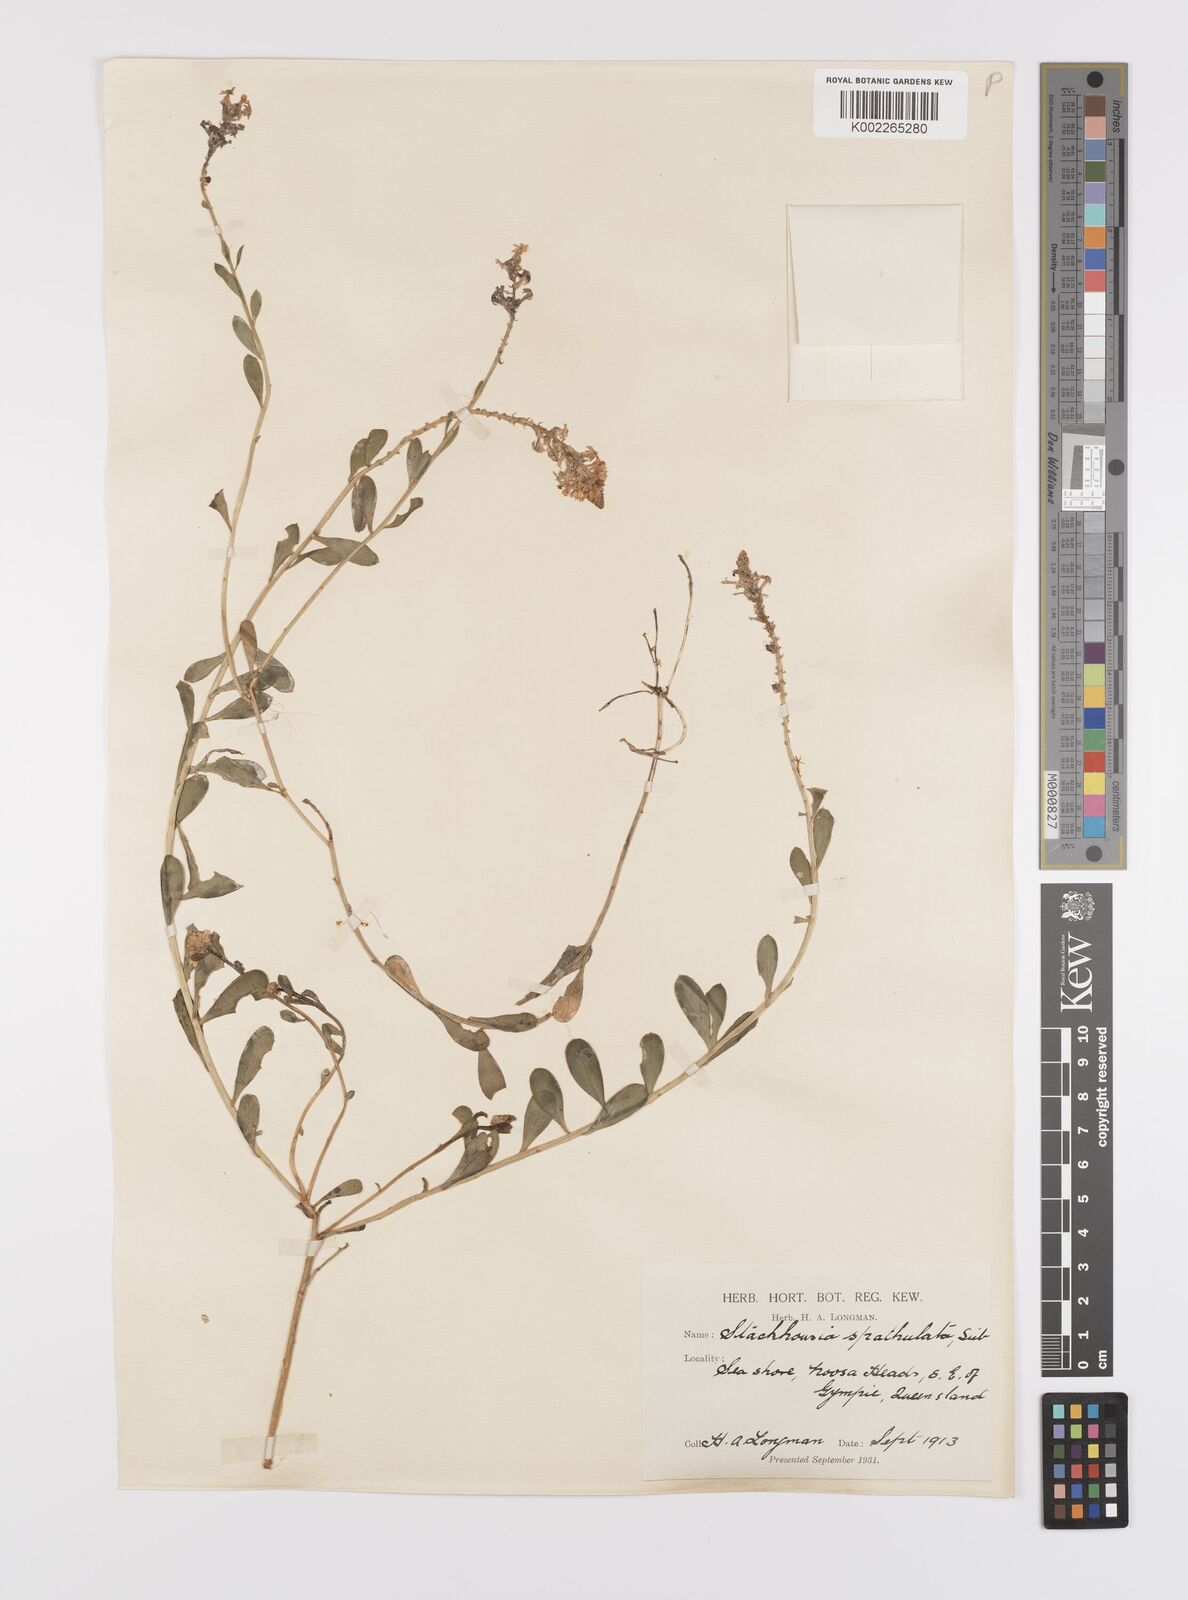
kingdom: Plantae
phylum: Tracheophyta
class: Magnoliopsida
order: Celastrales
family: Celastraceae
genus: Stackhousia
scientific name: Stackhousia spathulata
